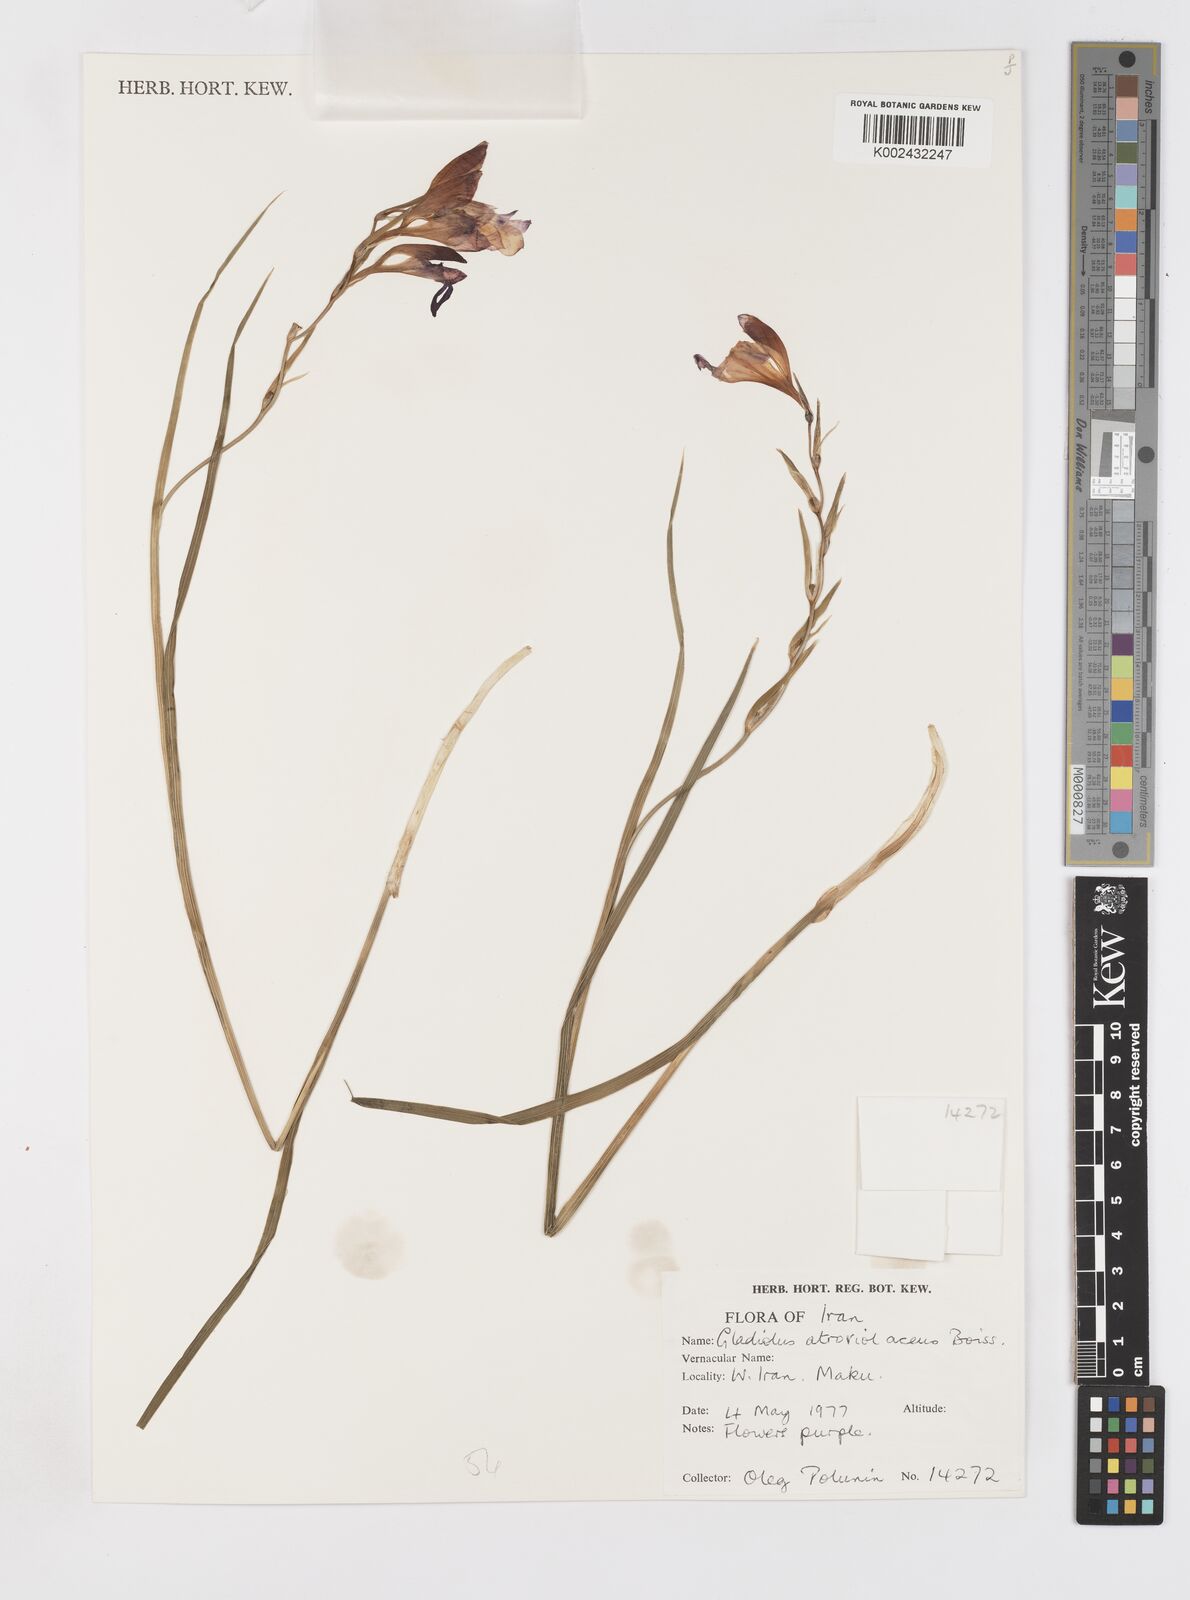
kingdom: Plantae
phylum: Tracheophyta
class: Liliopsida
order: Asparagales
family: Iridaceae
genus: Gladiolus
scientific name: Gladiolus atroviolaceus
